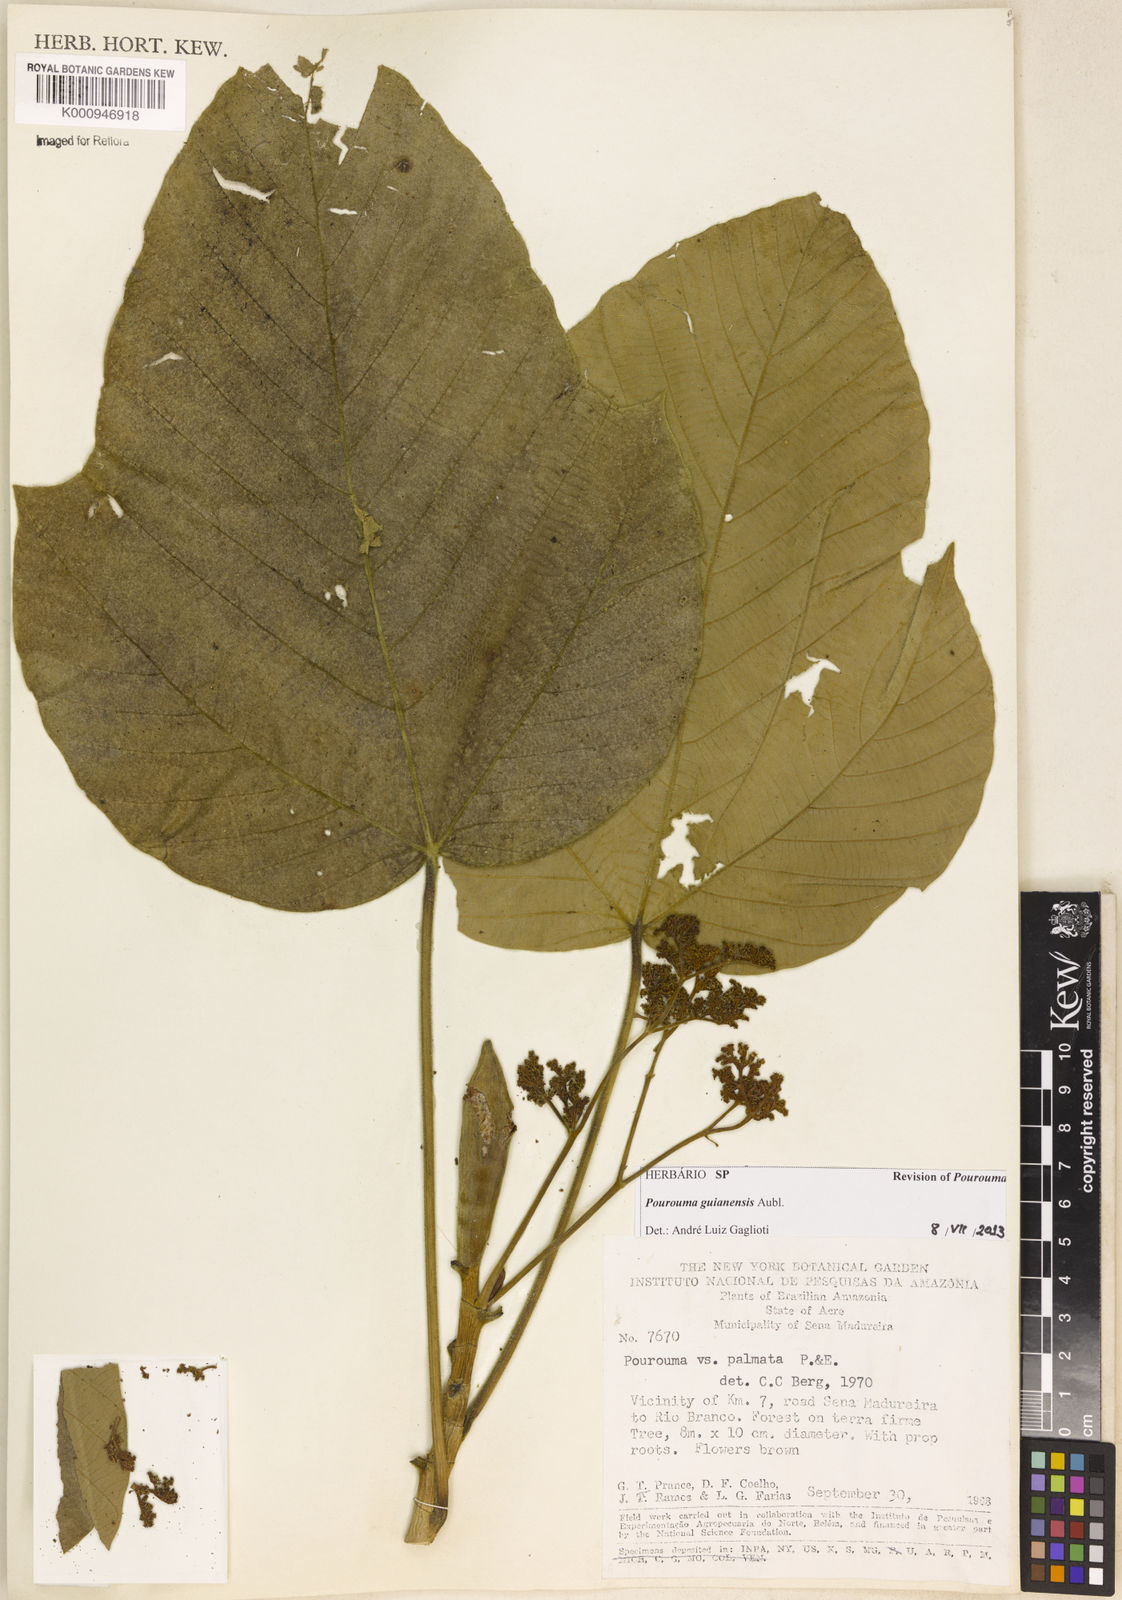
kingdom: Plantae
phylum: Tracheophyta
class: Magnoliopsida
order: Rosales
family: Urticaceae
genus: Pourouma
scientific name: Pourouma guianensis
